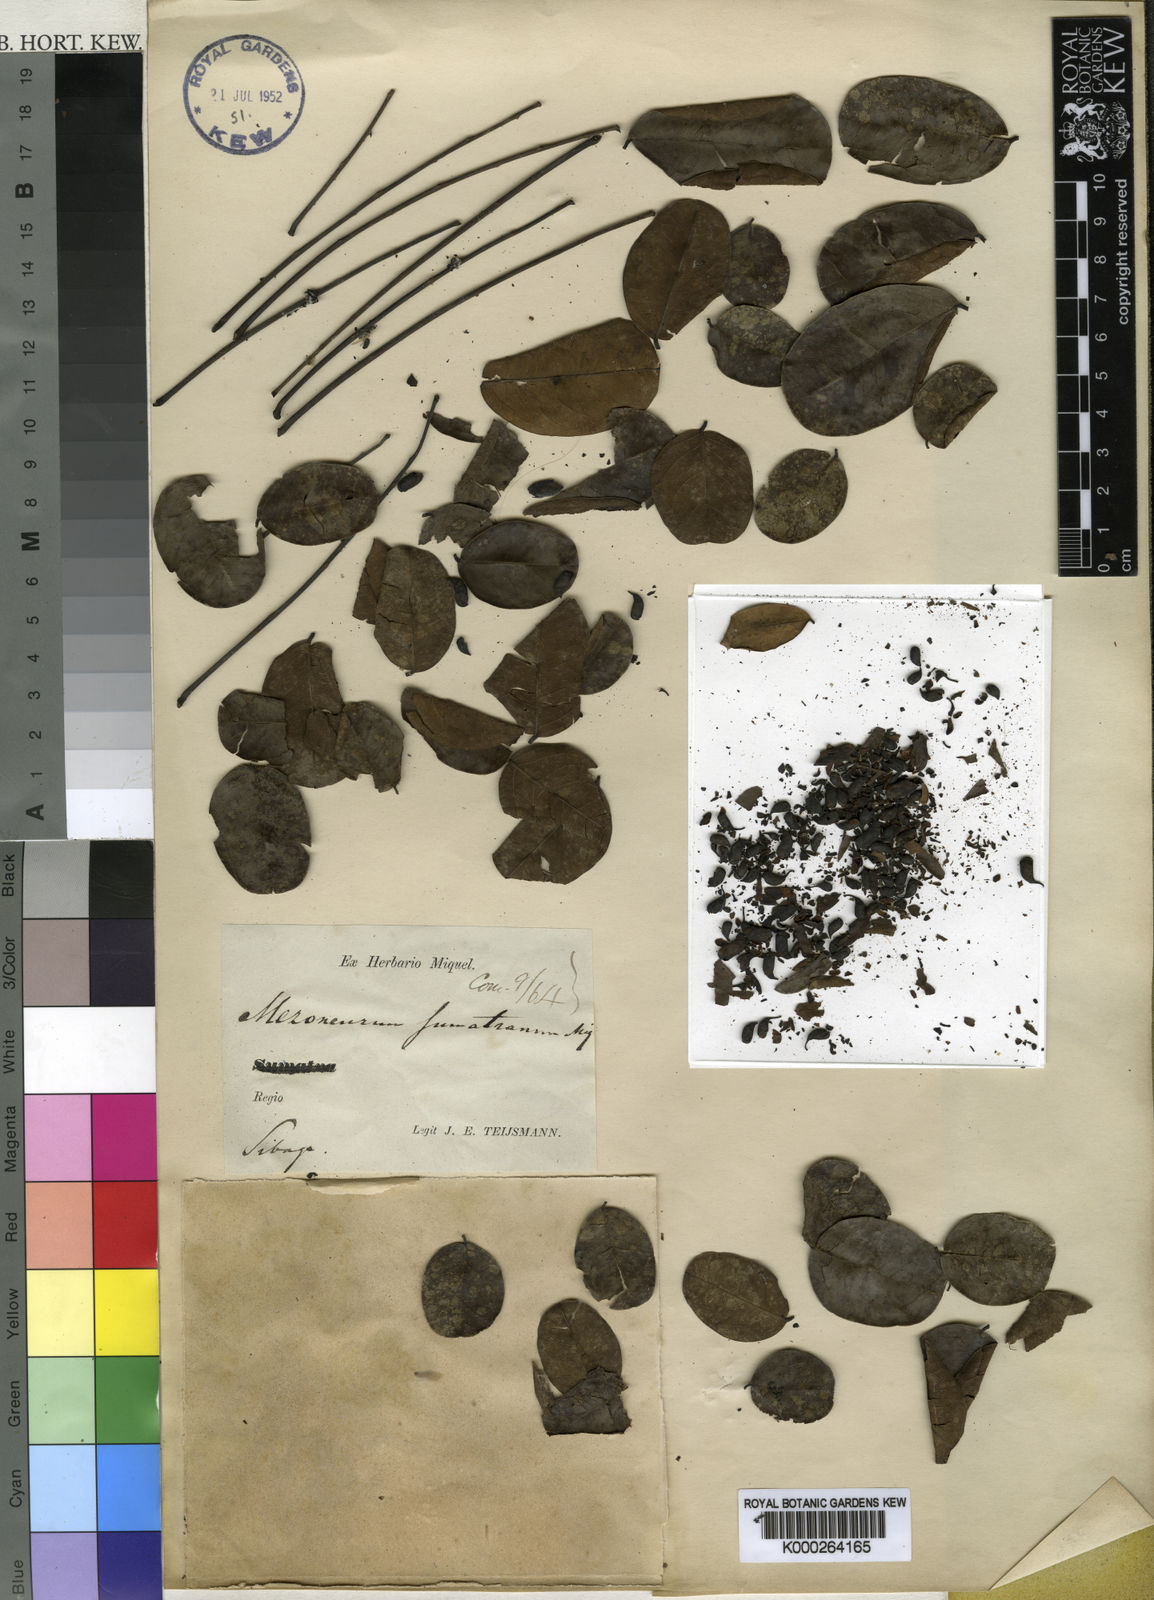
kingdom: Plantae
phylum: Tracheophyta
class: Magnoliopsida
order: Fabales
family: Fabaceae
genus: Mezoneuron
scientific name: Mezoneuron sumatranum
